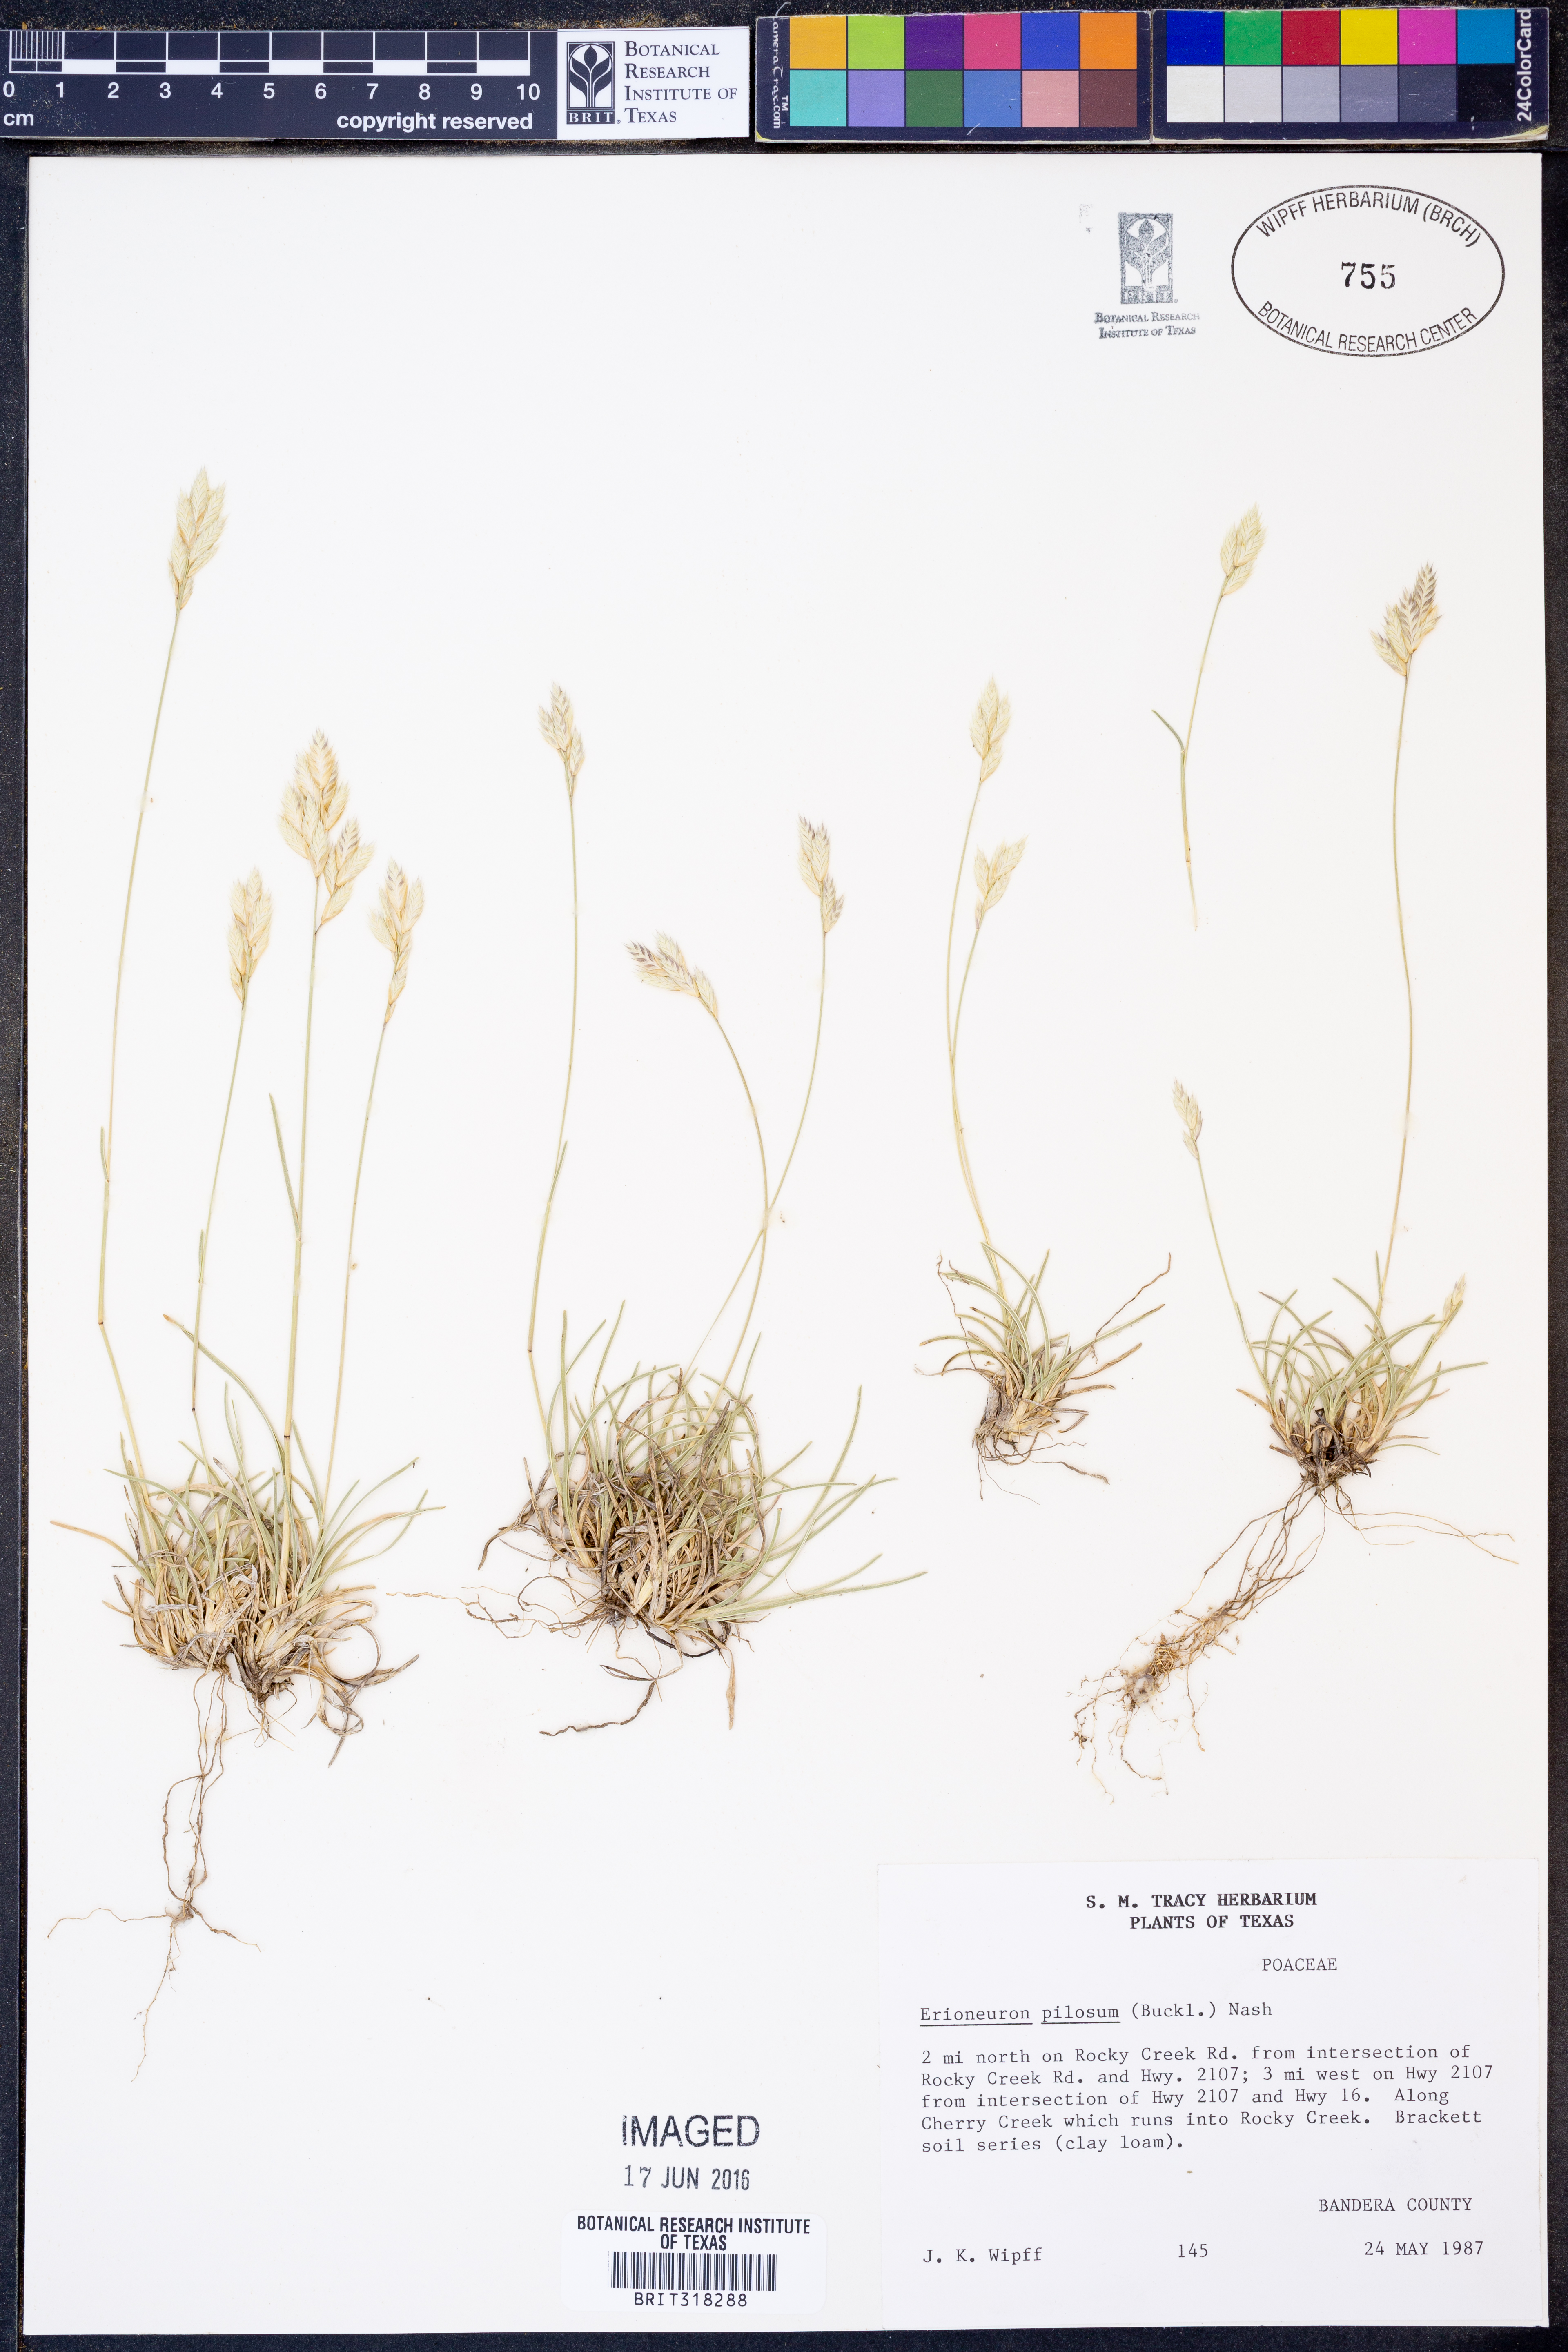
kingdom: Plantae
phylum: Tracheophyta
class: Liliopsida
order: Poales
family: Poaceae
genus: Erioneuron
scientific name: Erioneuron pilosum
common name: Hairy woolly grass
